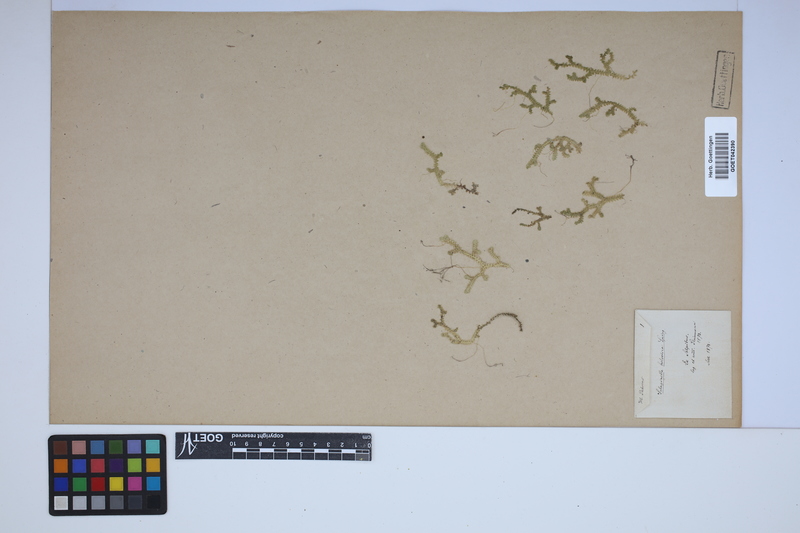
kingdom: Plantae
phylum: Tracheophyta
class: Lycopodiopsida
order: Selaginellales
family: Selaginellaceae
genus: Selaginella
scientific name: Selaginella helvetica
